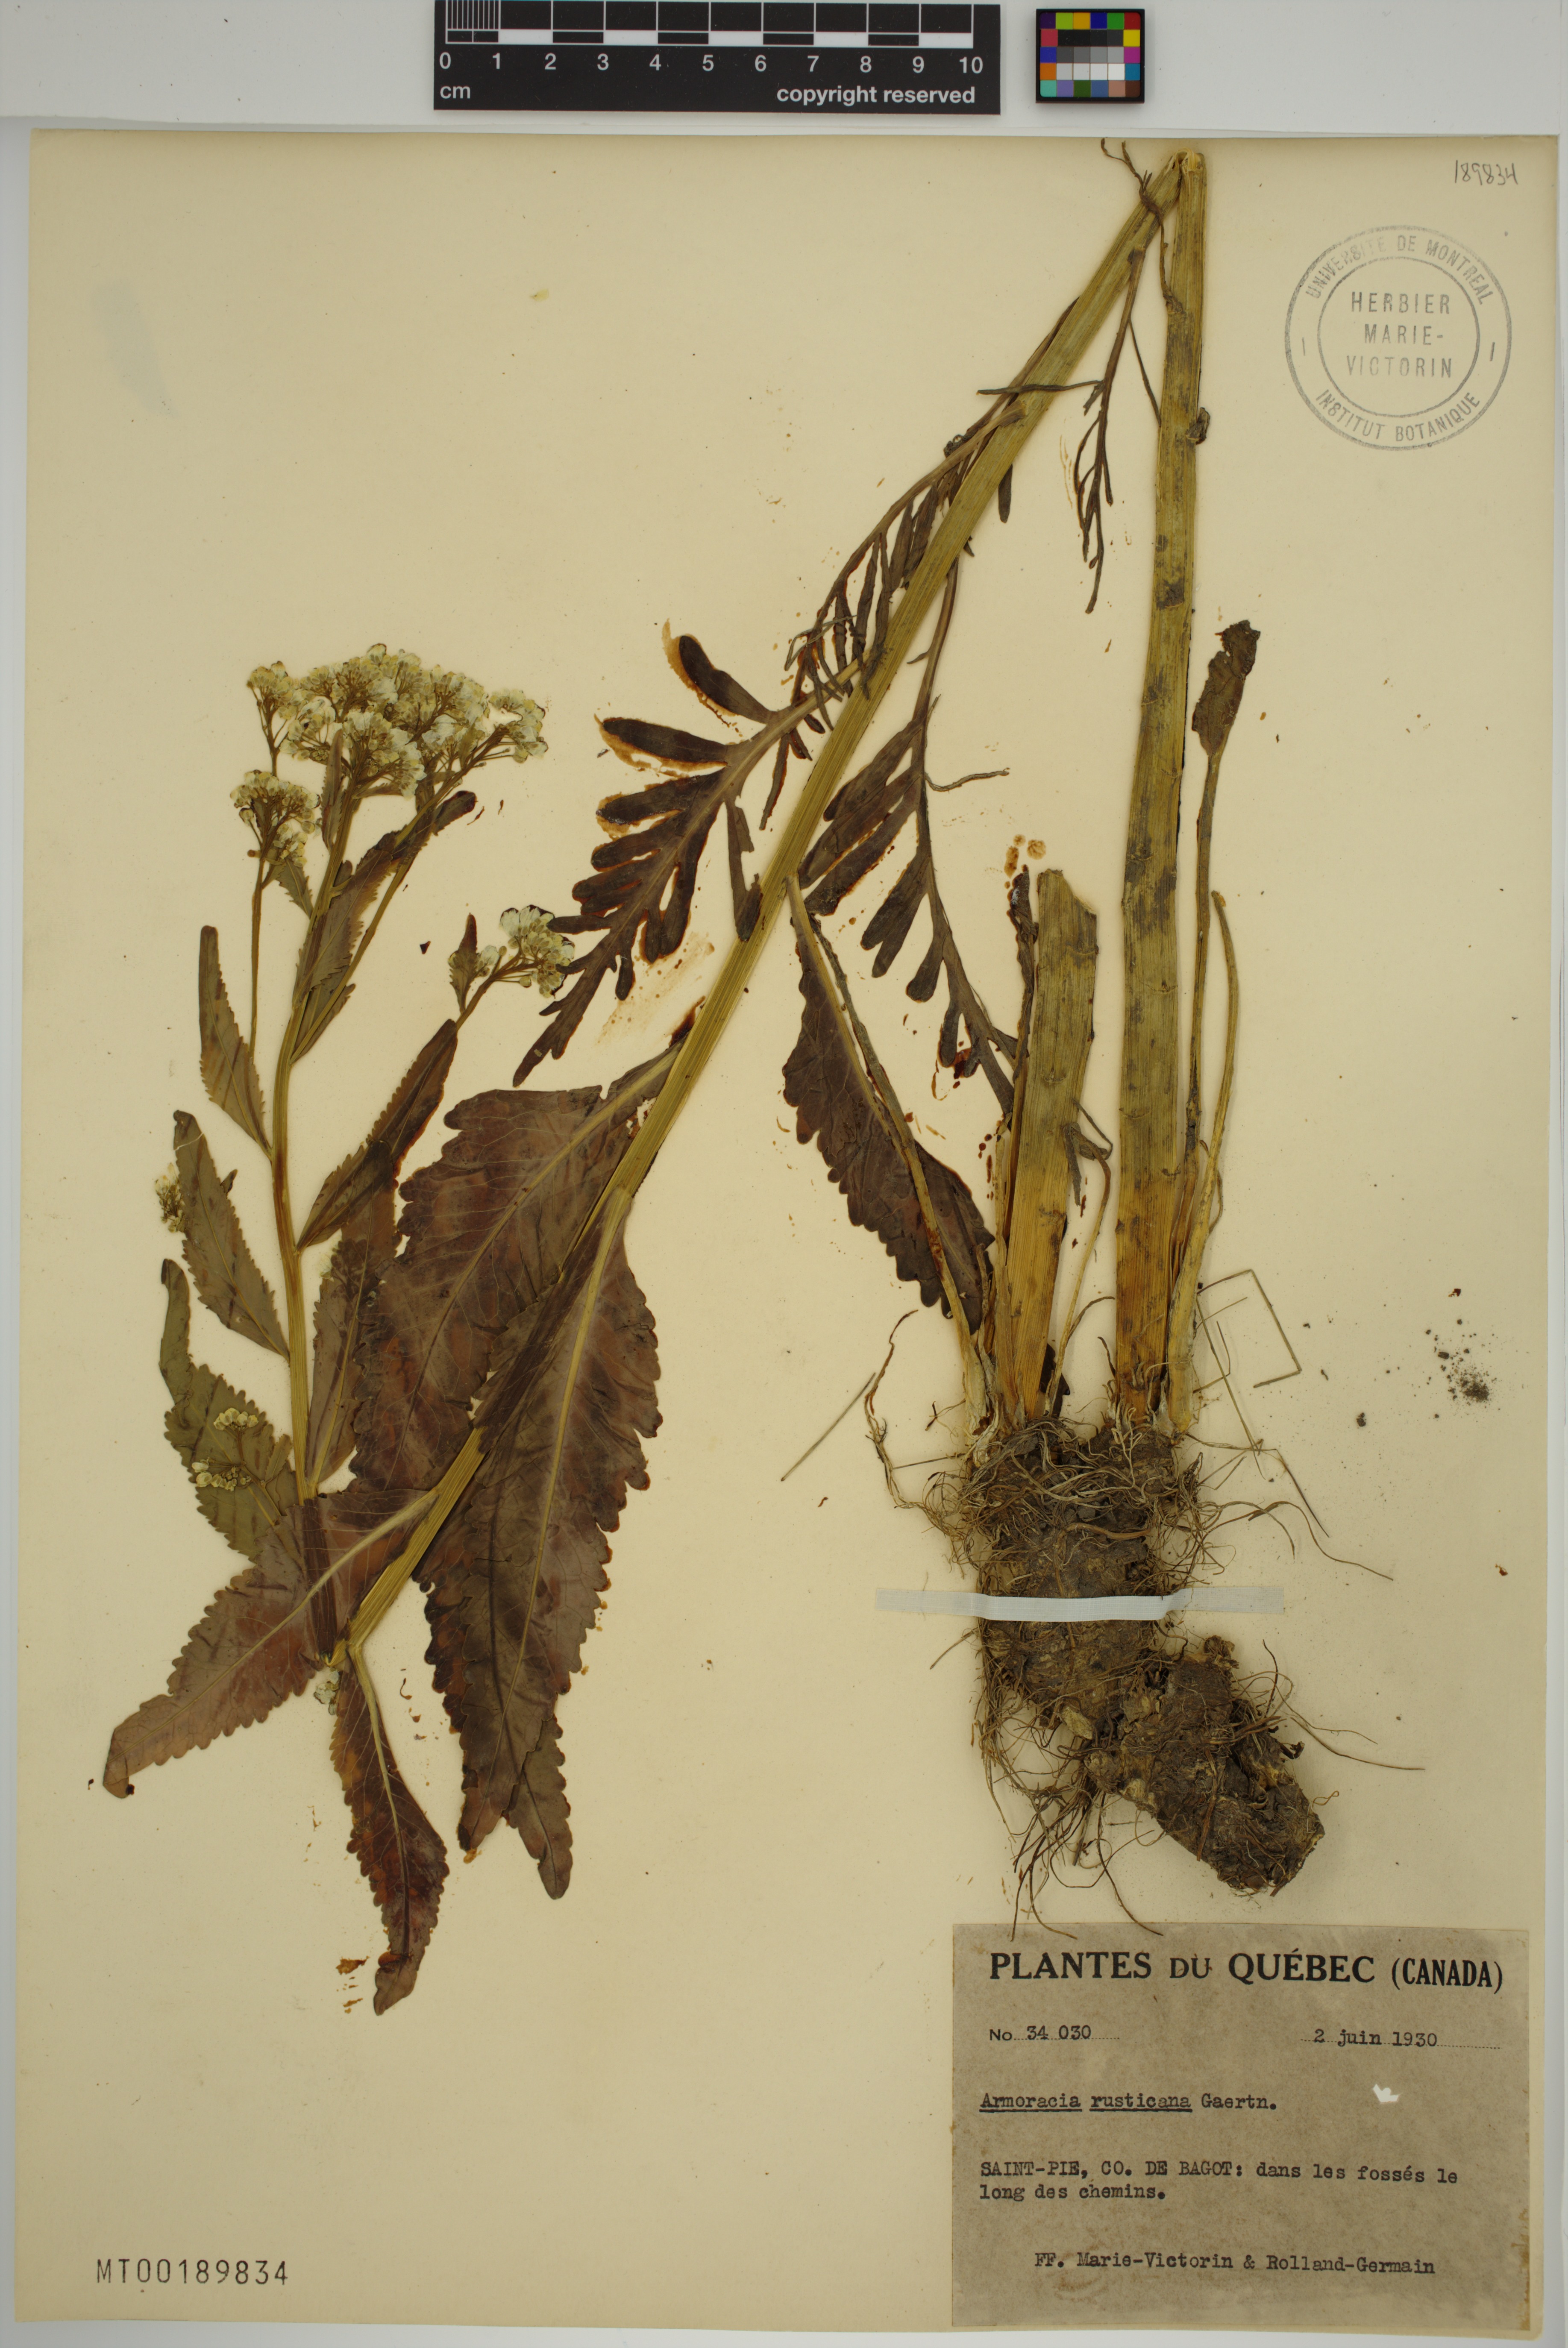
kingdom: Plantae
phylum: Tracheophyta
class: Magnoliopsida
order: Brassicales
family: Brassicaceae
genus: Armoracia
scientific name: Armoracia rusticana
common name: Horseradish
